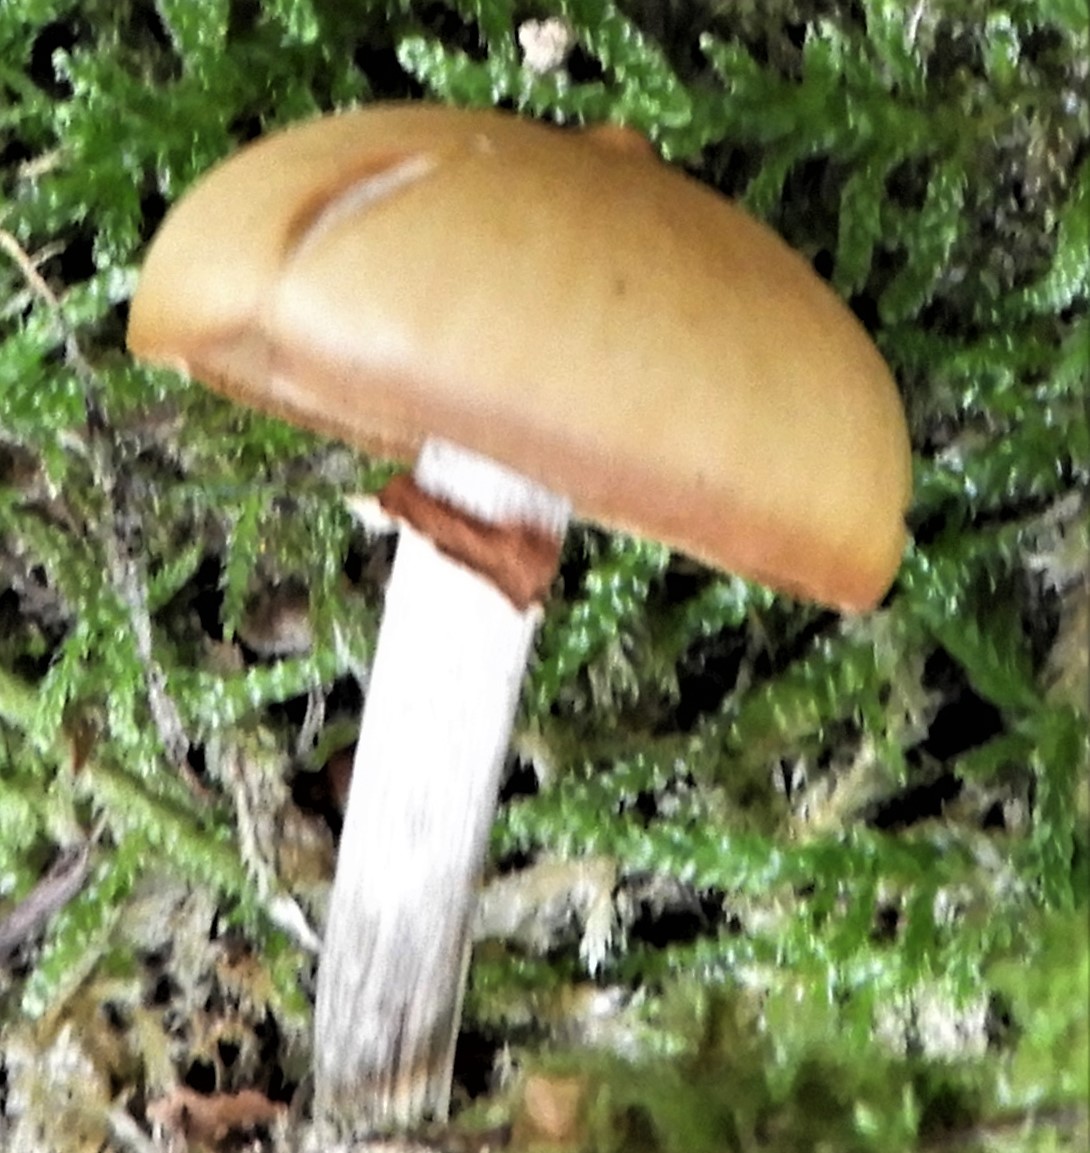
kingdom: Fungi
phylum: Basidiomycota
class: Agaricomycetes
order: Agaricales
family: Hymenogastraceae
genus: Galerina
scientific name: Galerina marginata
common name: randbæltet hjelmhat
